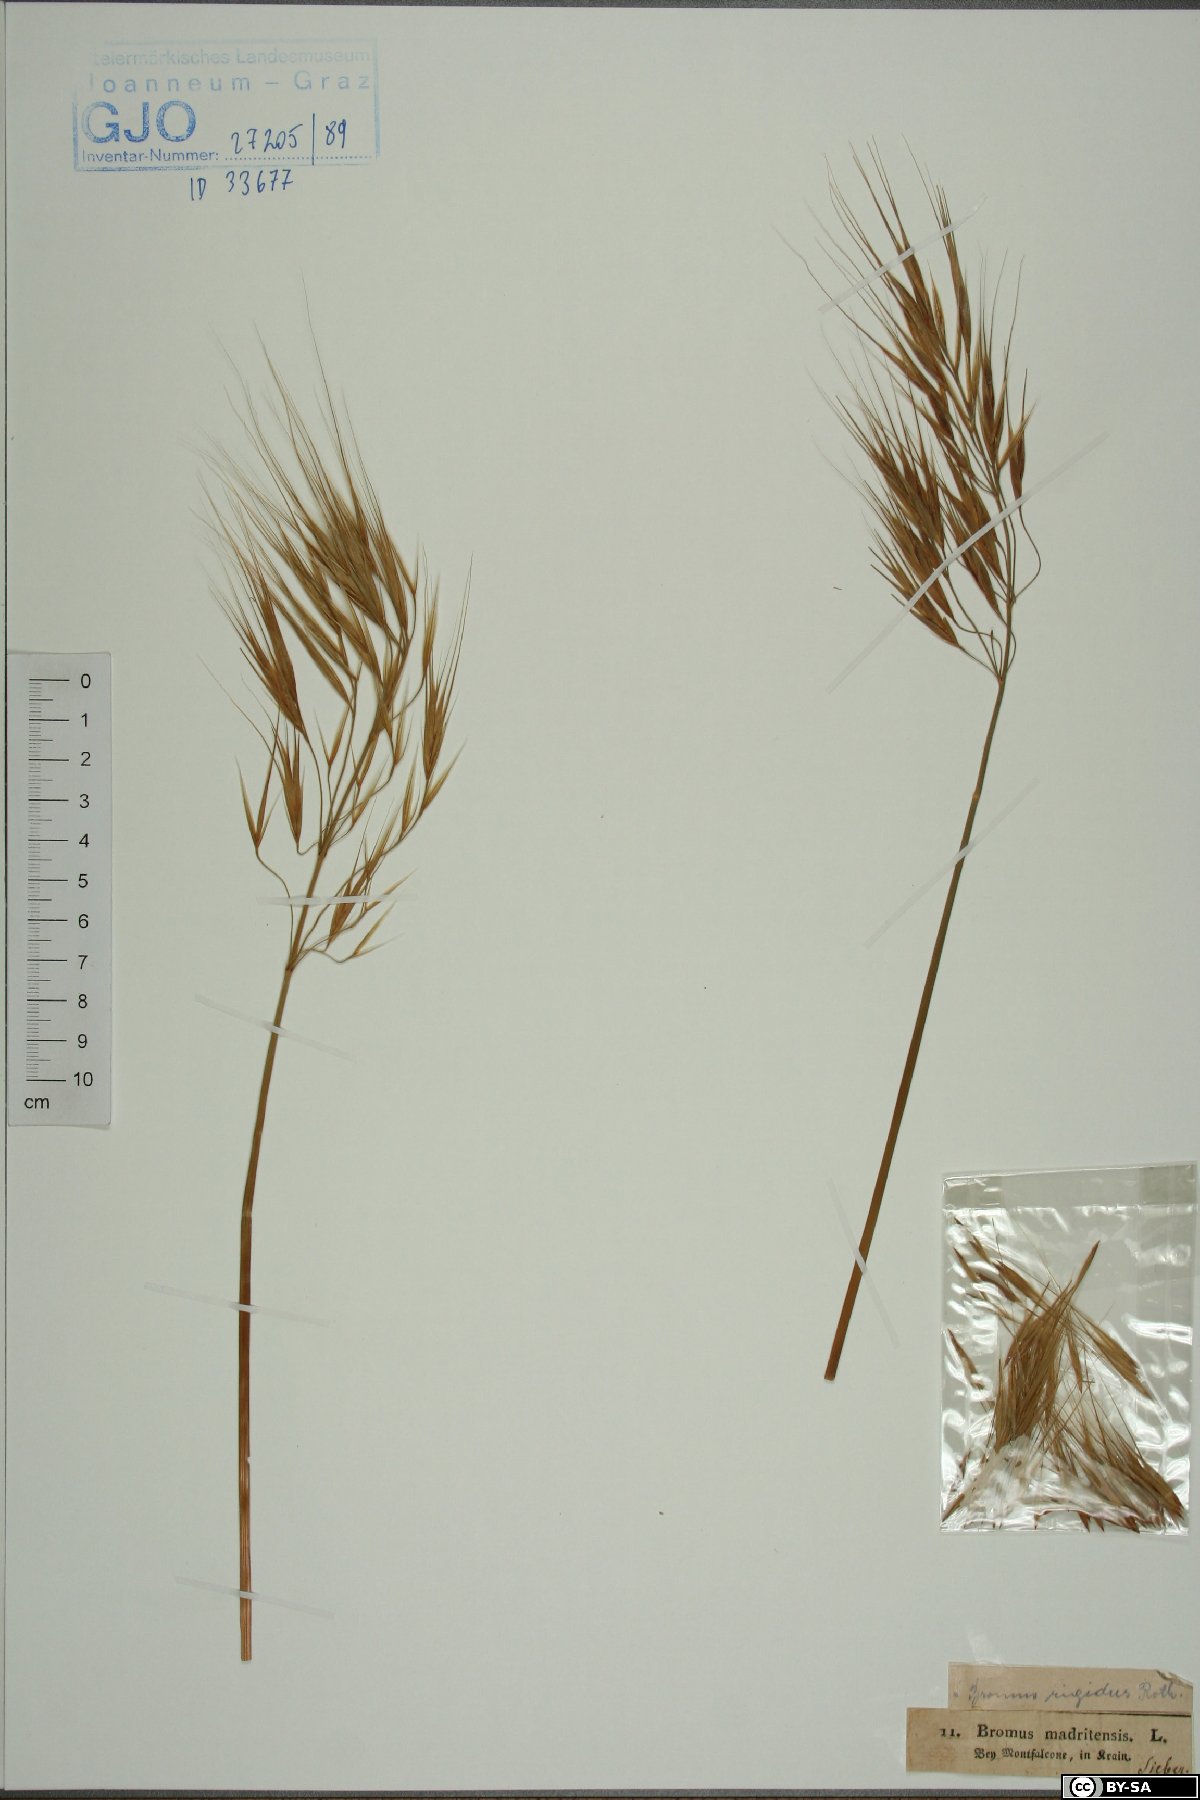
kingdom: Plantae
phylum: Tracheophyta
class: Liliopsida
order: Poales
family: Poaceae
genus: Bromus
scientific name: Bromus rigidus
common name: Ripgut brome
